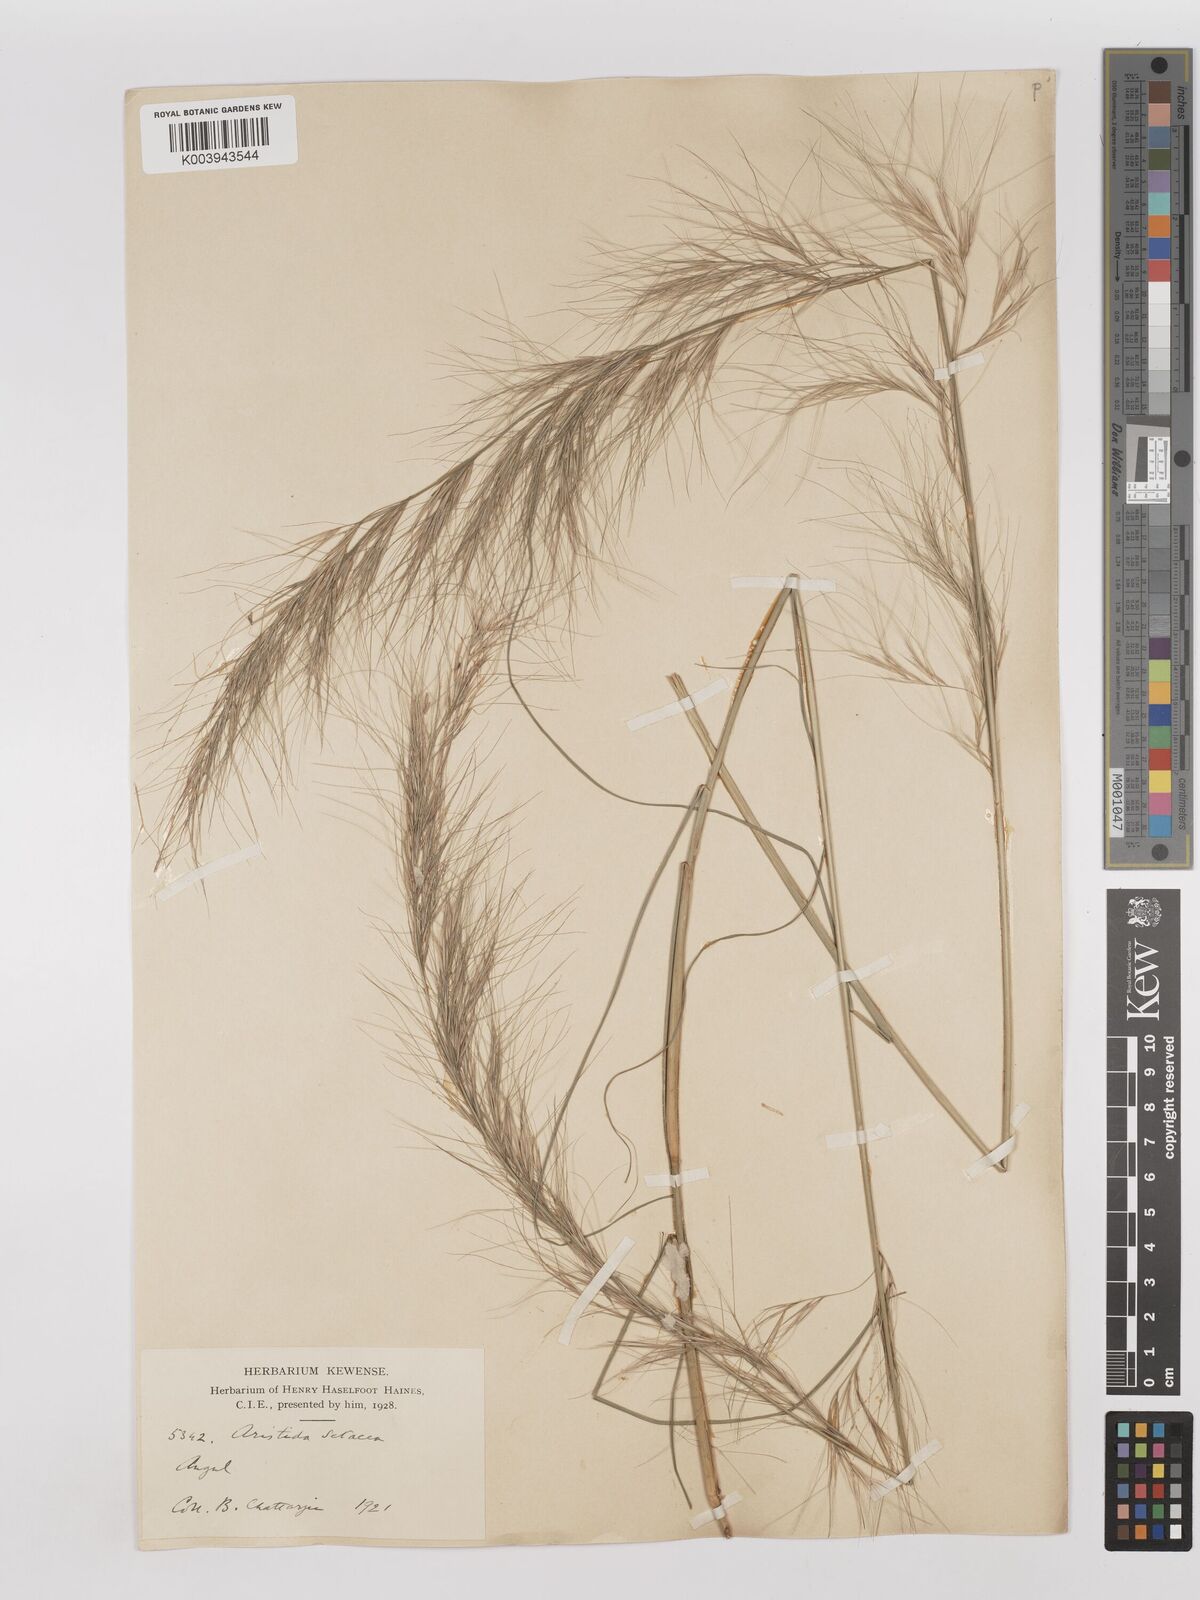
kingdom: Plantae
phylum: Tracheophyta
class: Liliopsida
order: Poales
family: Poaceae
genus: Aristida
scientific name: Aristida setacea
